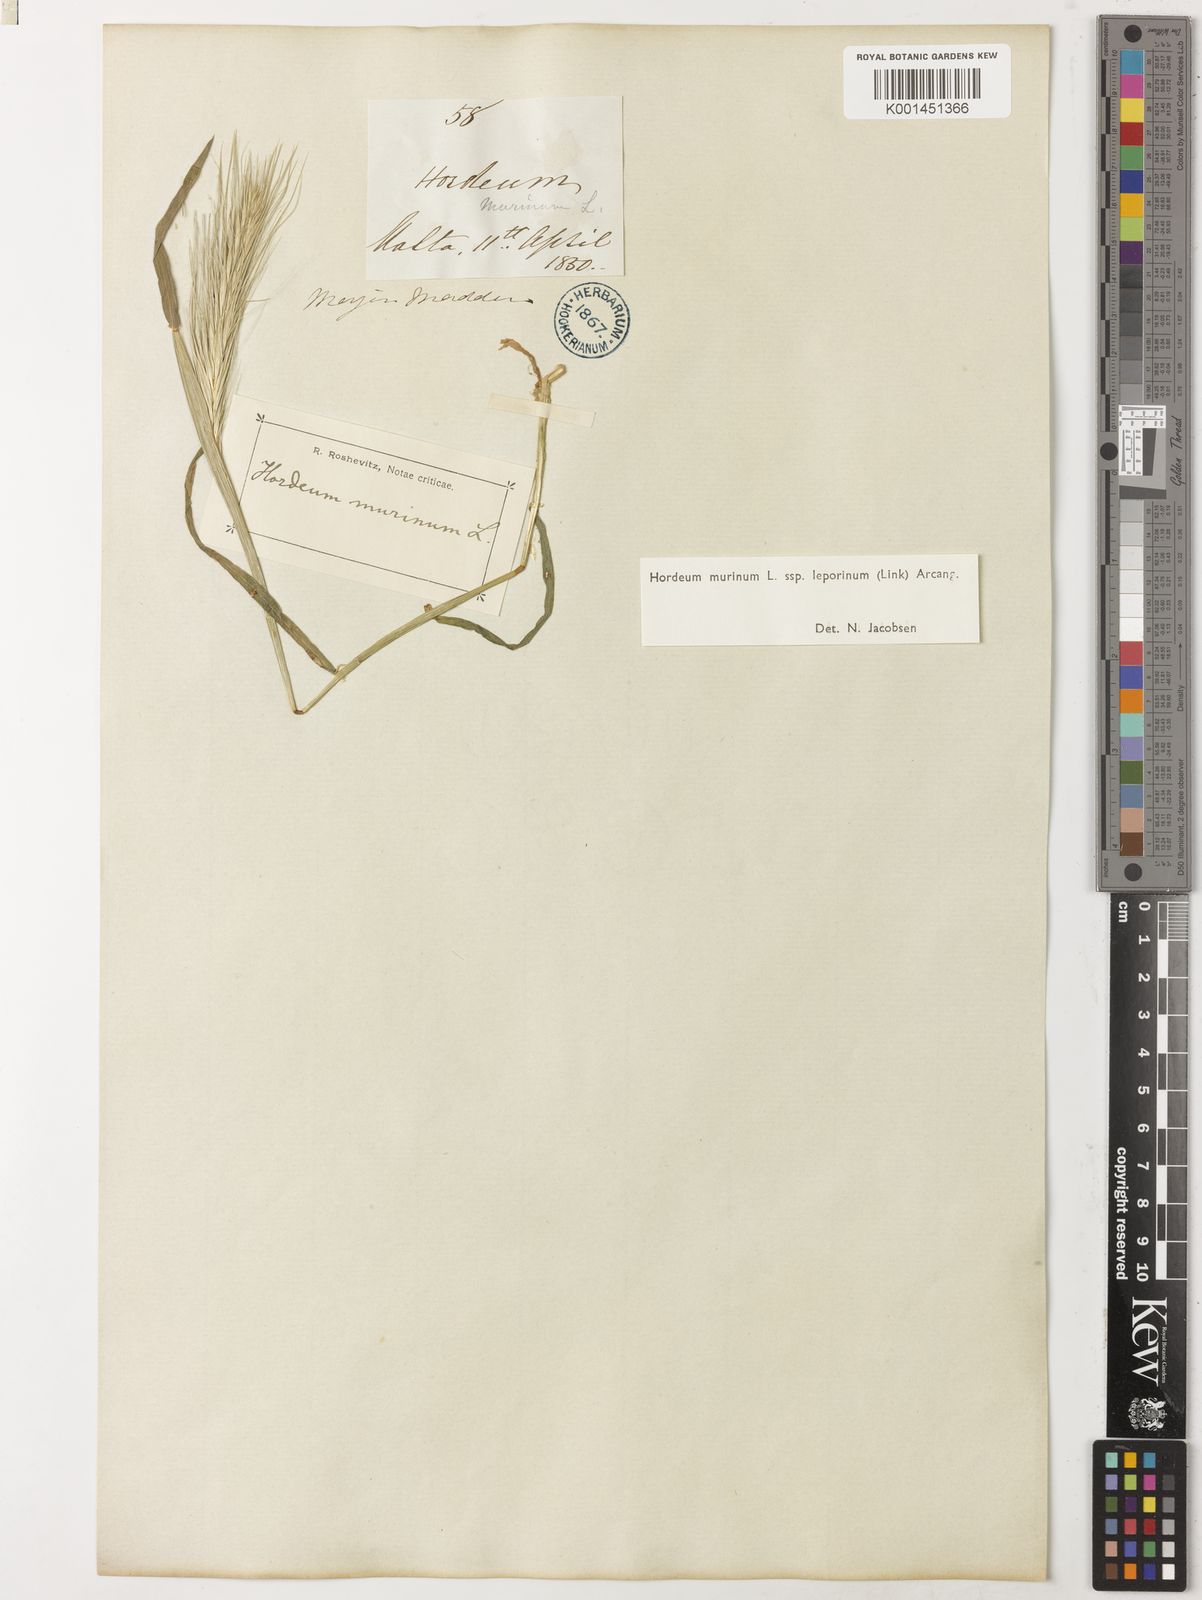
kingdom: Plantae
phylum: Tracheophyta
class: Liliopsida
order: Poales
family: Poaceae
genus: Hordeum
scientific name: Hordeum murinum
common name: Wall barley
